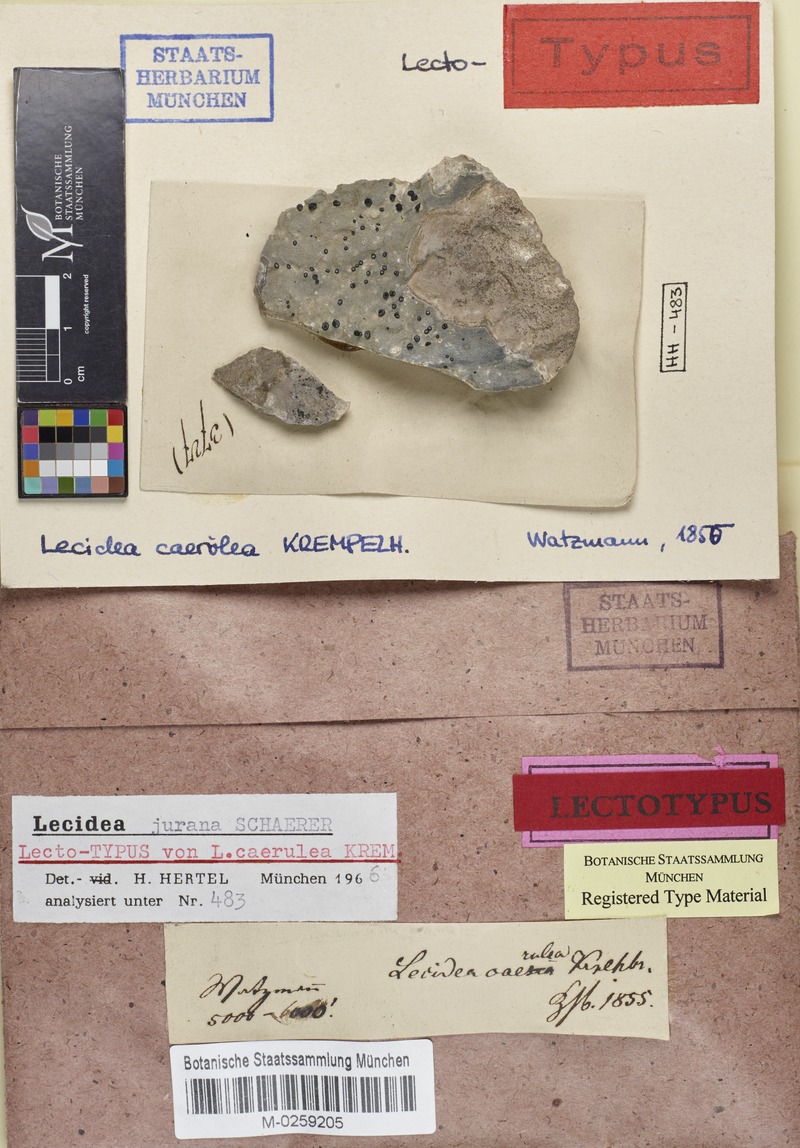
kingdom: Fungi
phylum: Ascomycota
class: Lecanoromycetes
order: Lecideales
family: Lecideaceae
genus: Farnoldia
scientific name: Farnoldia jurana
